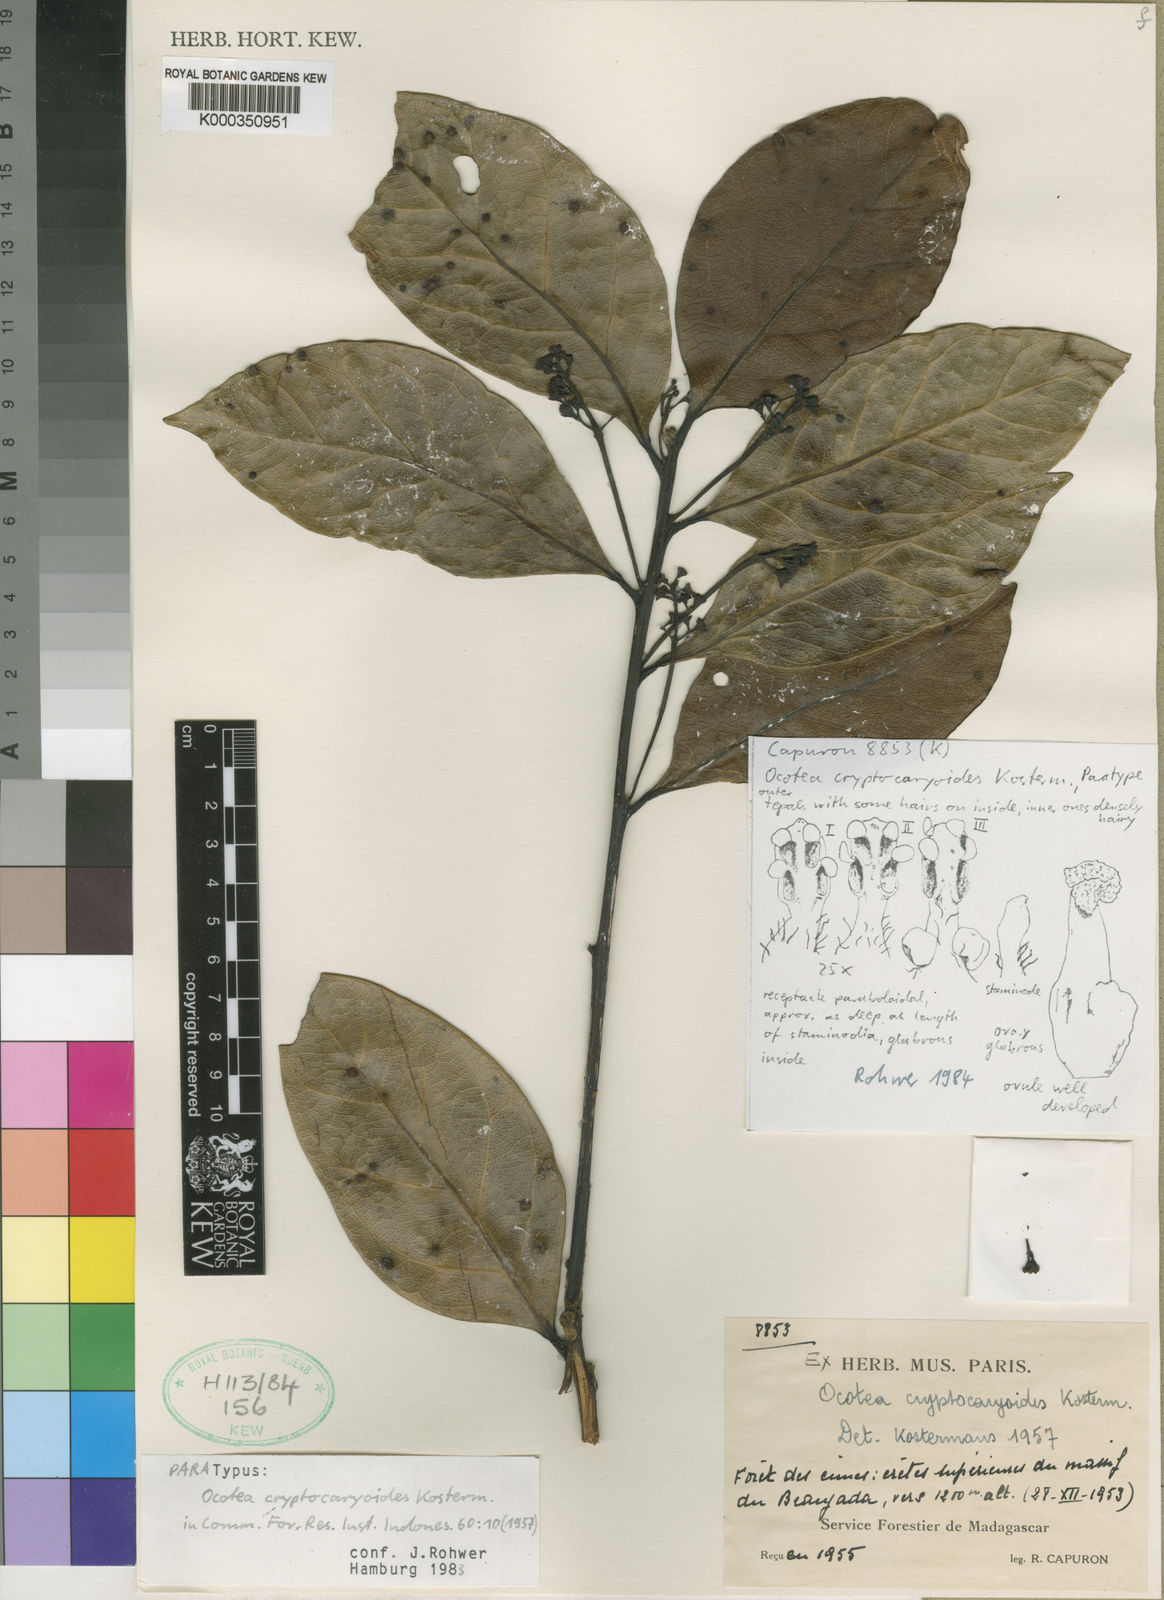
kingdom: Plantae
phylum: Tracheophyta
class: Magnoliopsida
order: Laurales
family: Lauraceae
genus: Ocotea
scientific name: Ocotea cryptocaryoides
